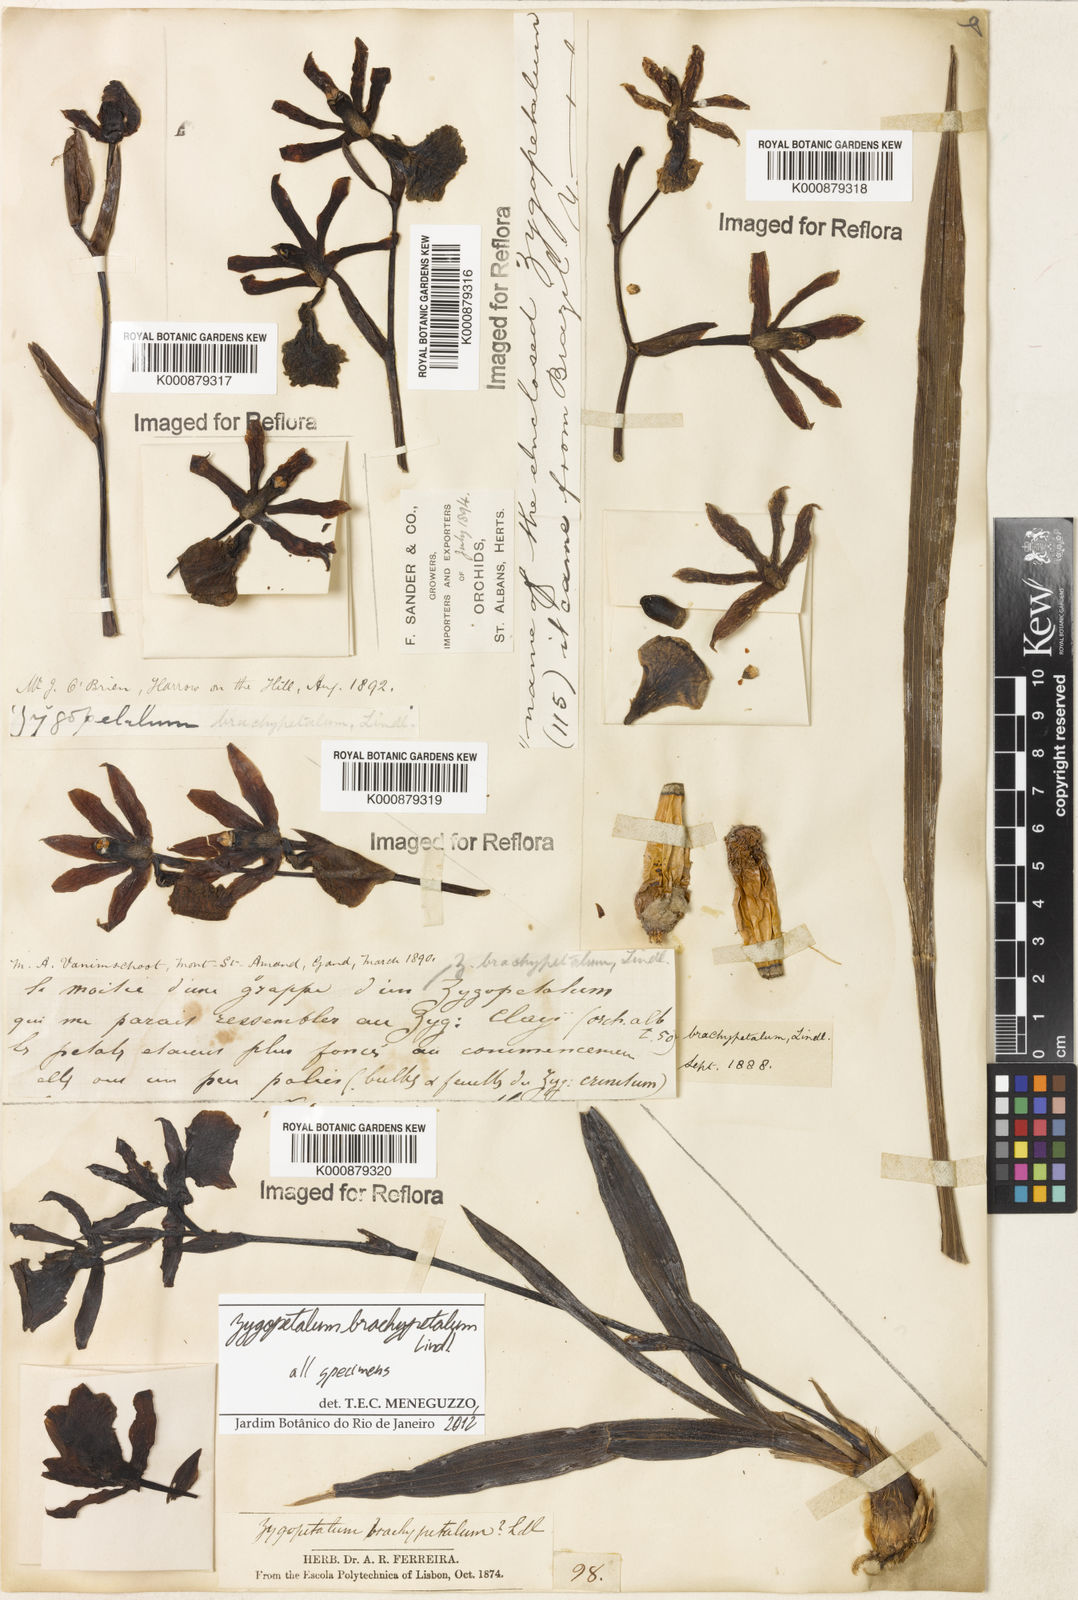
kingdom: Plantae
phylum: Tracheophyta
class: Liliopsida
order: Asparagales
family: Orchidaceae
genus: Zygopetalum
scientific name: Zygopetalum brachypetalum
